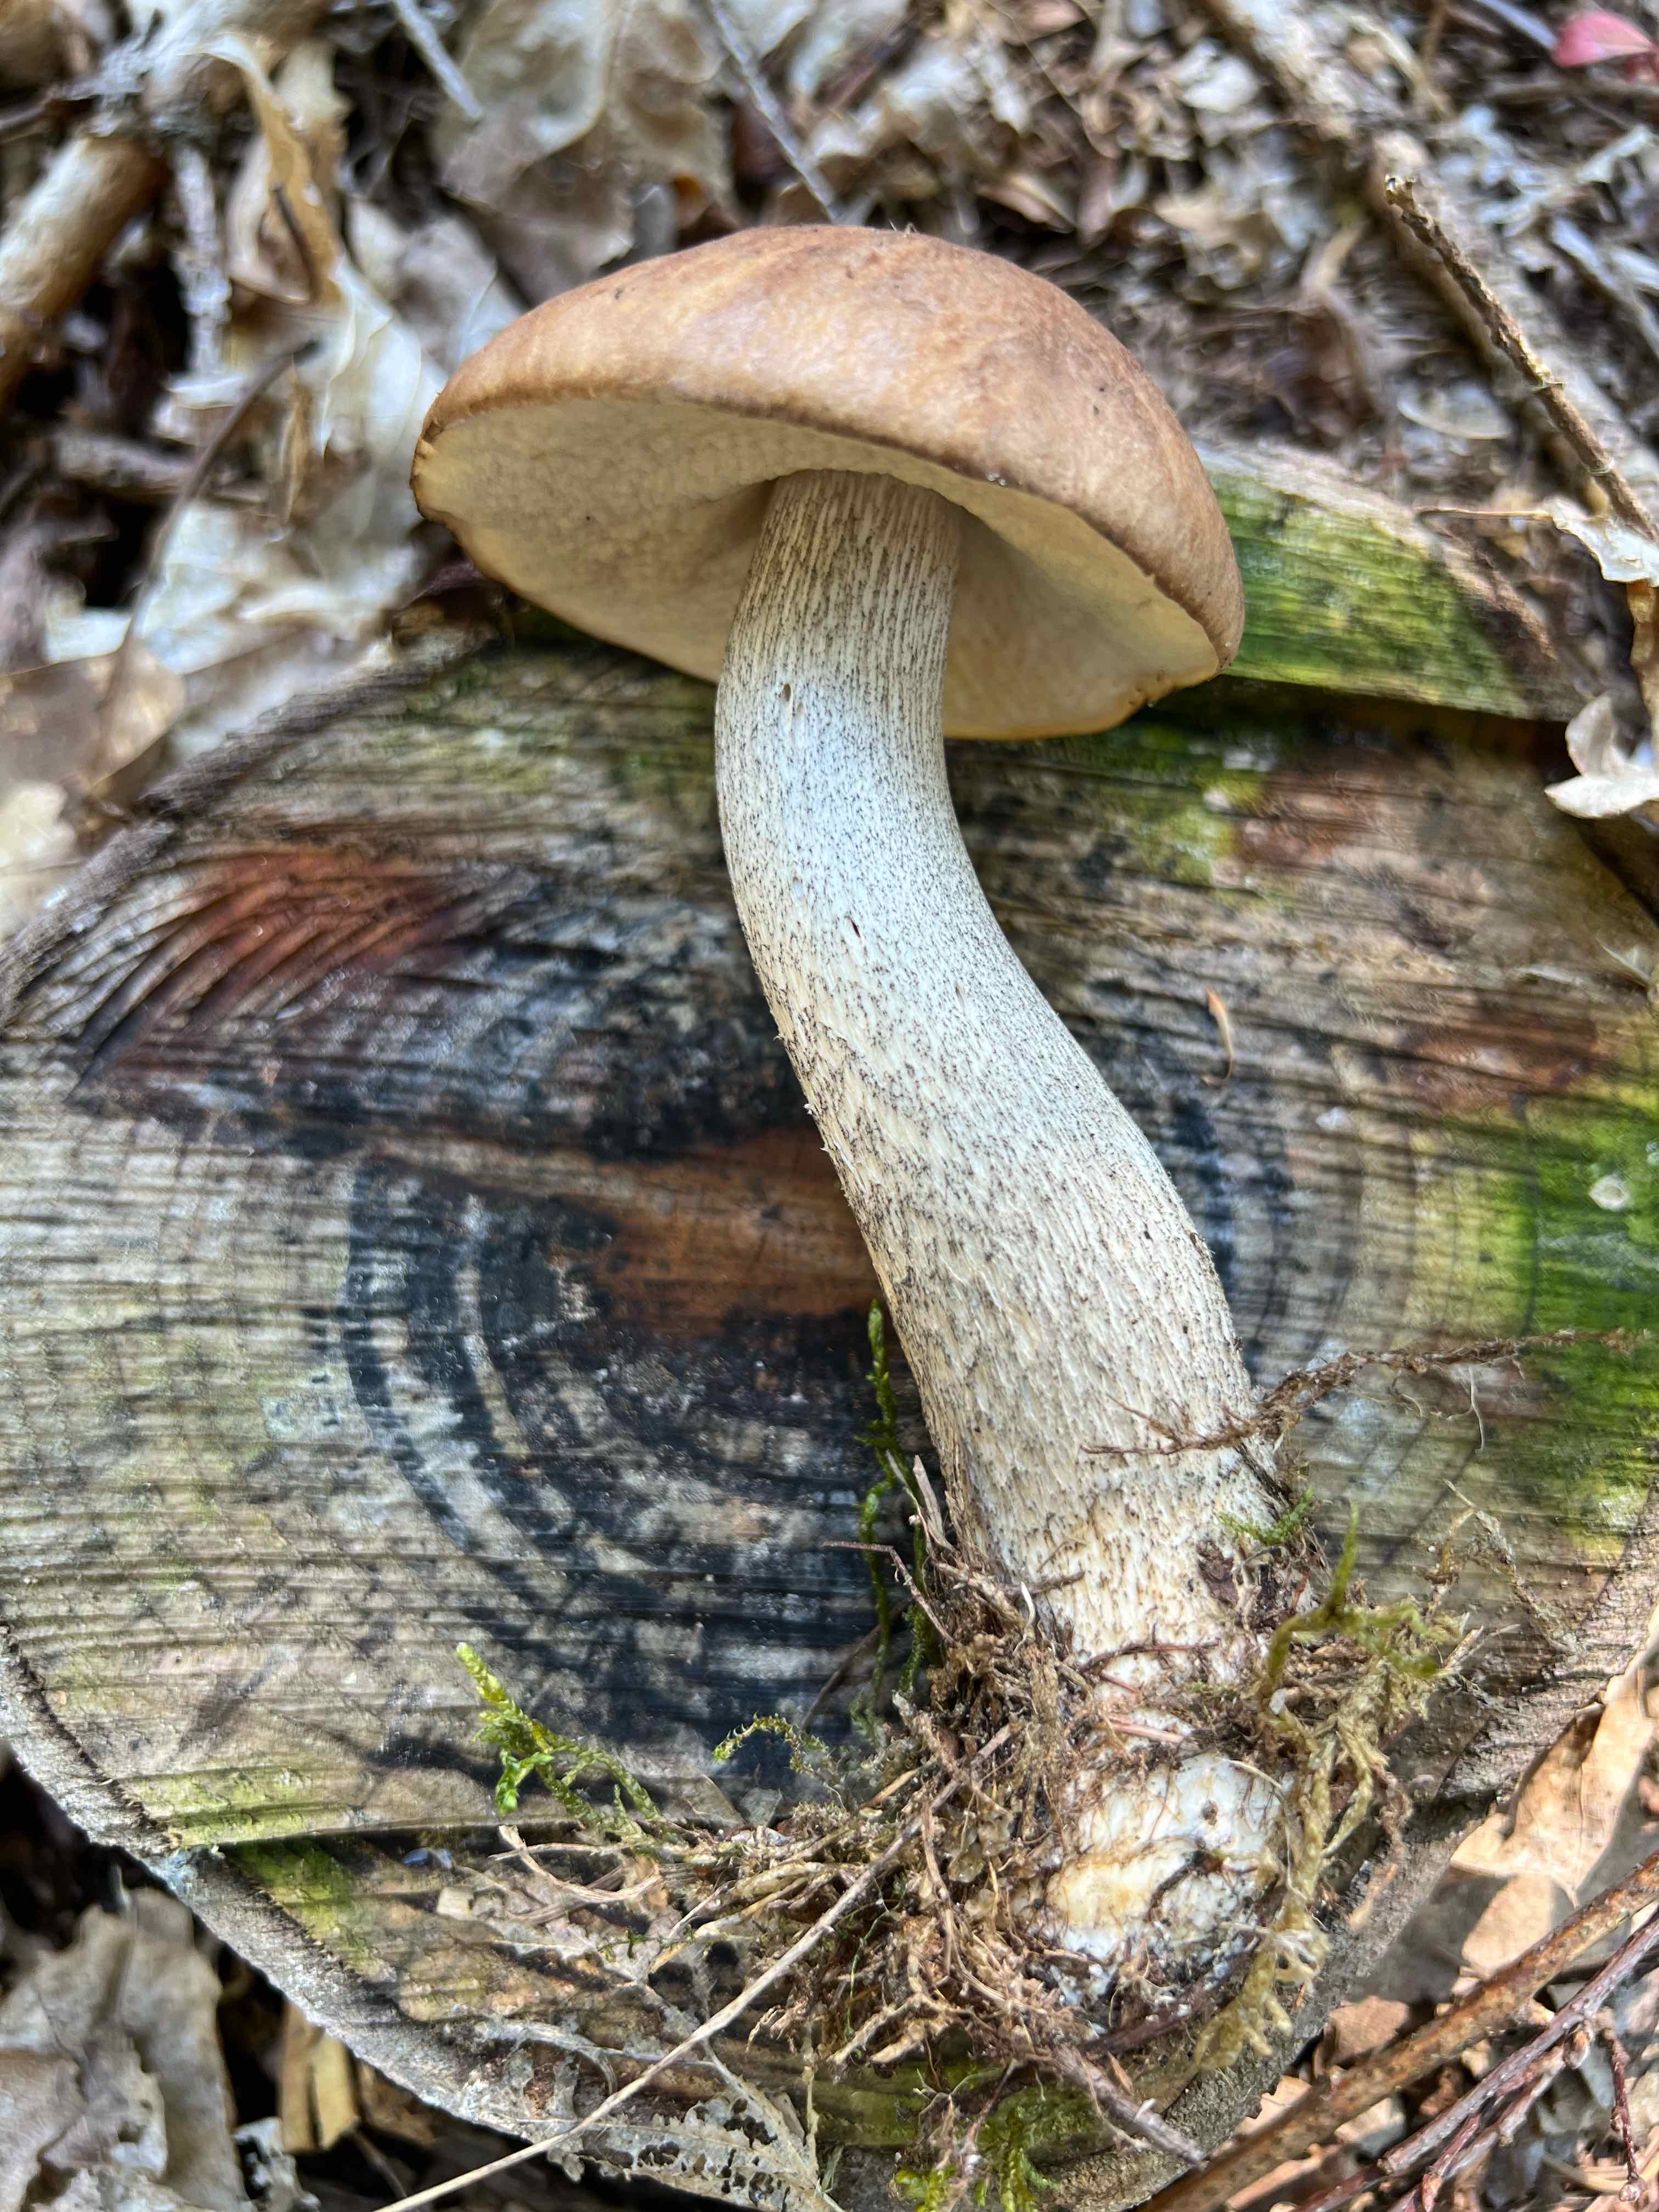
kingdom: Fungi
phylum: Basidiomycota
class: Agaricomycetes
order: Boletales
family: Boletaceae
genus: Leccinum
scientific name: Leccinum scabrum
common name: brun skælrørhat
